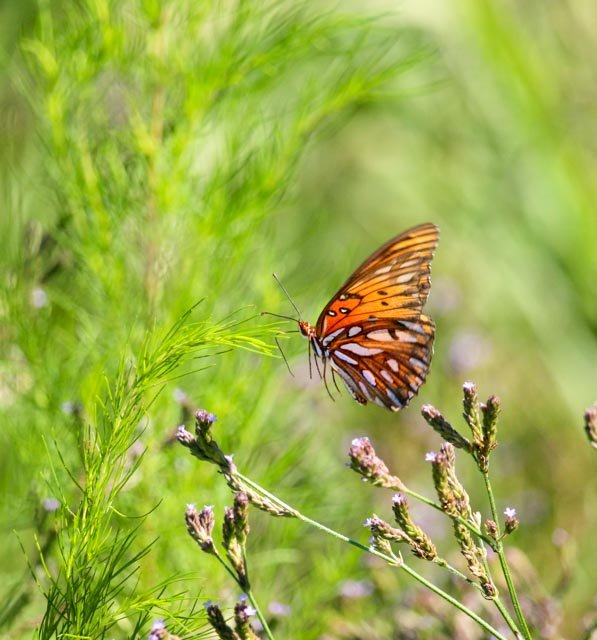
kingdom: Animalia
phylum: Arthropoda
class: Insecta
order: Lepidoptera
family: Nymphalidae
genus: Dione
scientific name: Dione vanillae
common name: Gulf Fritillary
